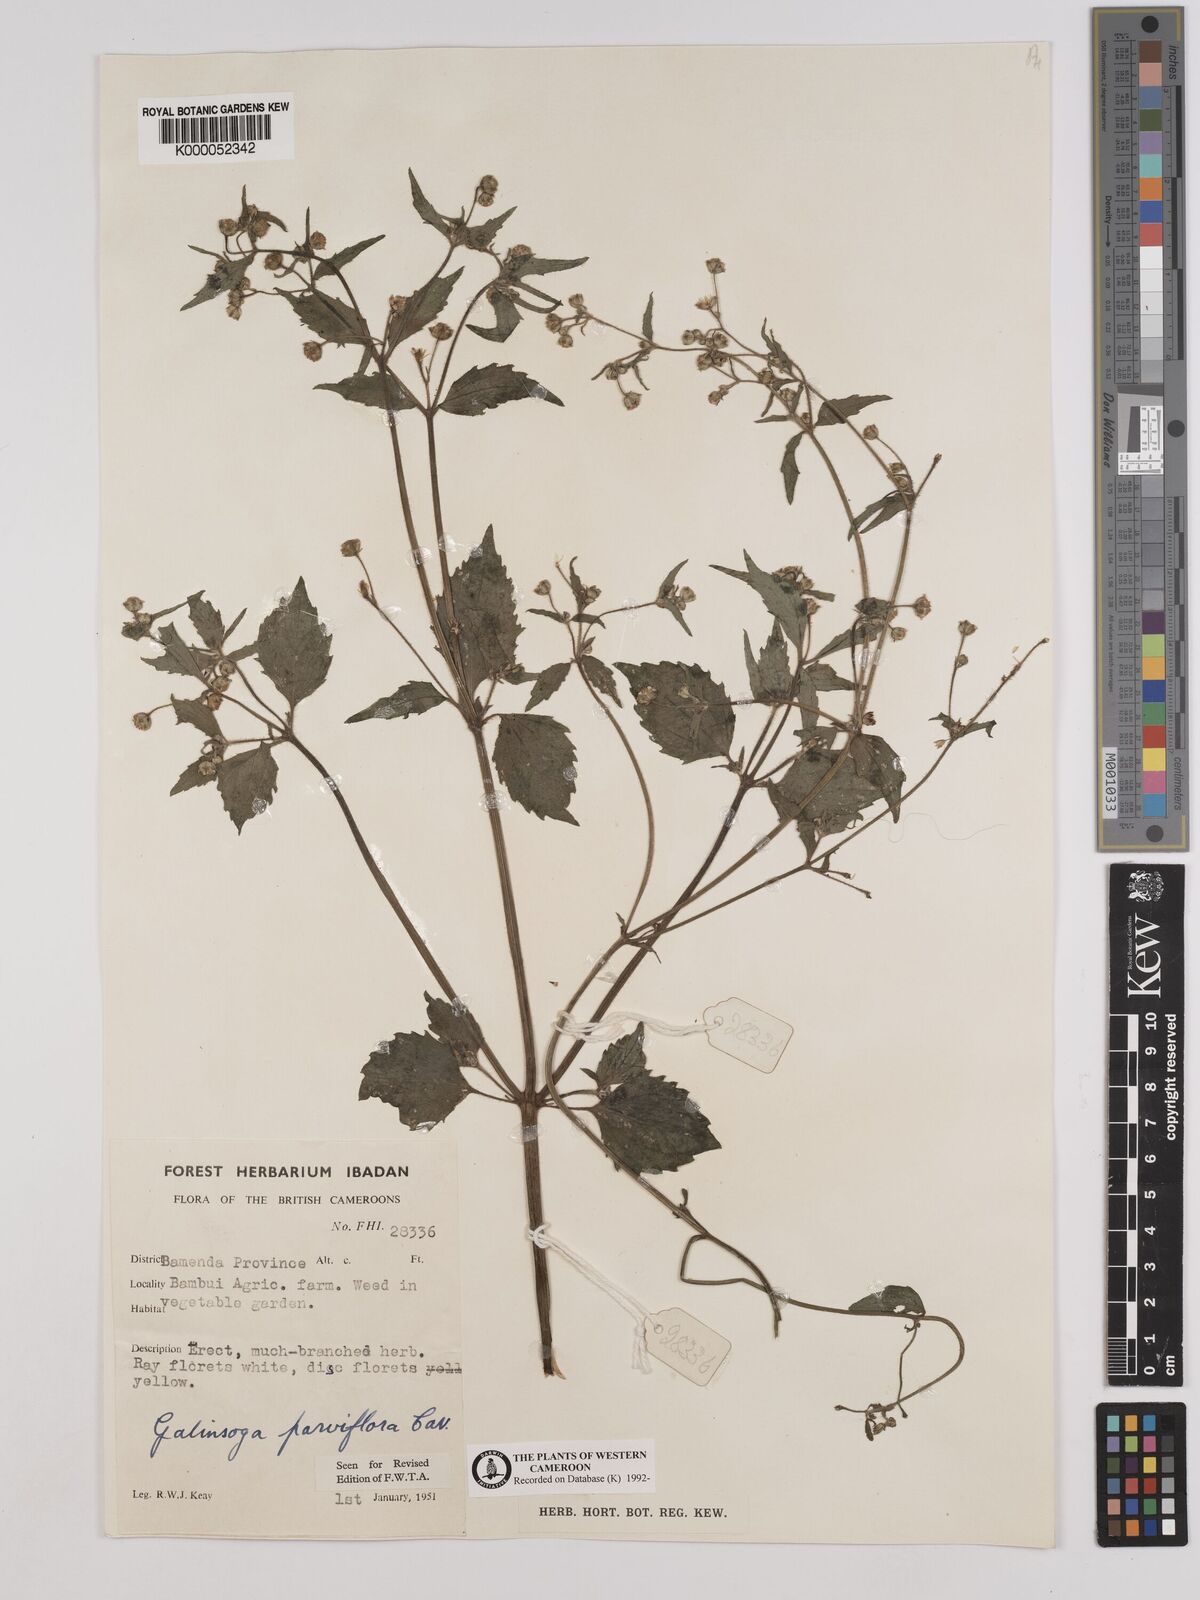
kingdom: Plantae
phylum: Tracheophyta
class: Magnoliopsida
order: Asterales
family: Asteraceae
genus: Galinsoga
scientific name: Galinsoga parviflora
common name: Gallant soldier
